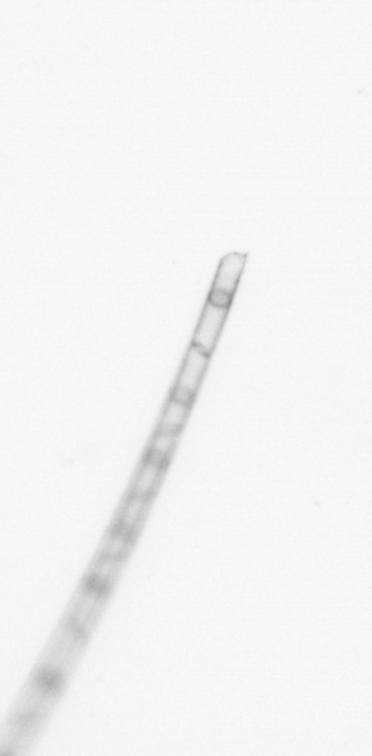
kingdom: Chromista
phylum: Ochrophyta
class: Bacillariophyceae
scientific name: Bacillariophyceae
